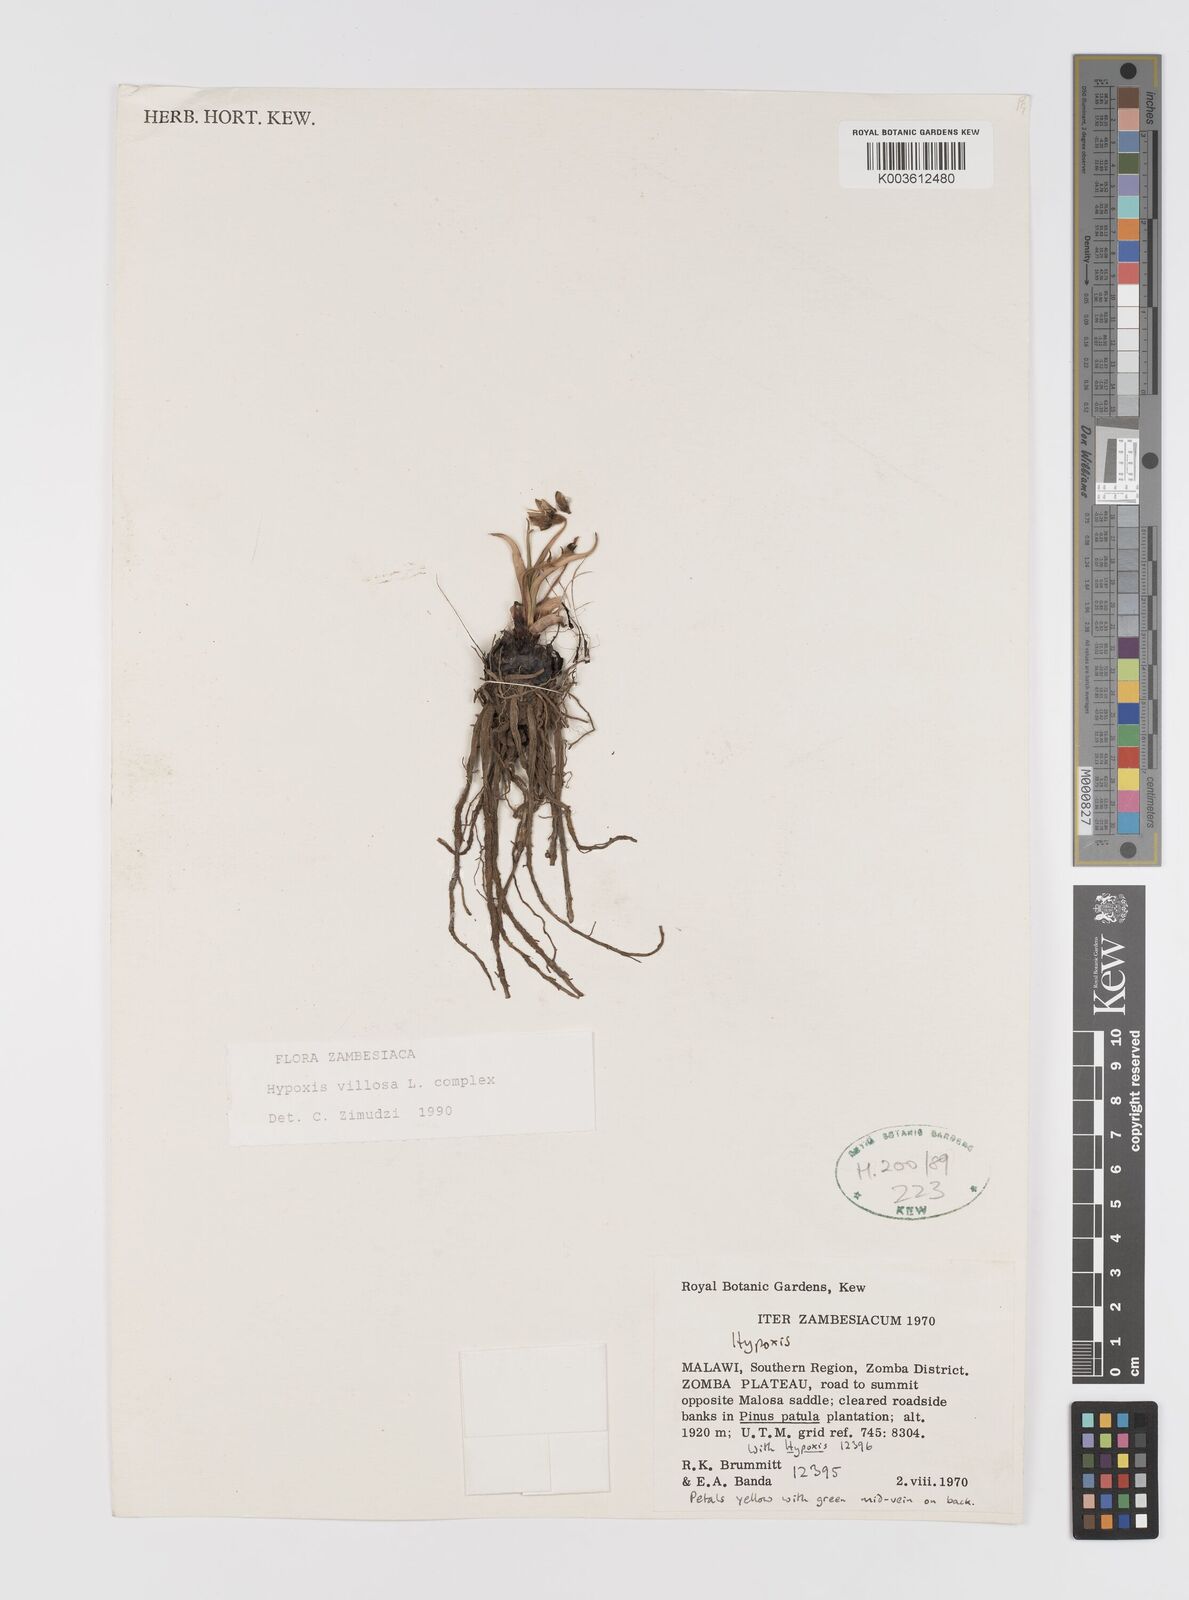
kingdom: Plantae
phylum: Tracheophyta
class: Liliopsida
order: Asparagales
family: Hypoxidaceae
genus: Hypoxis
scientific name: Hypoxis nyasica
